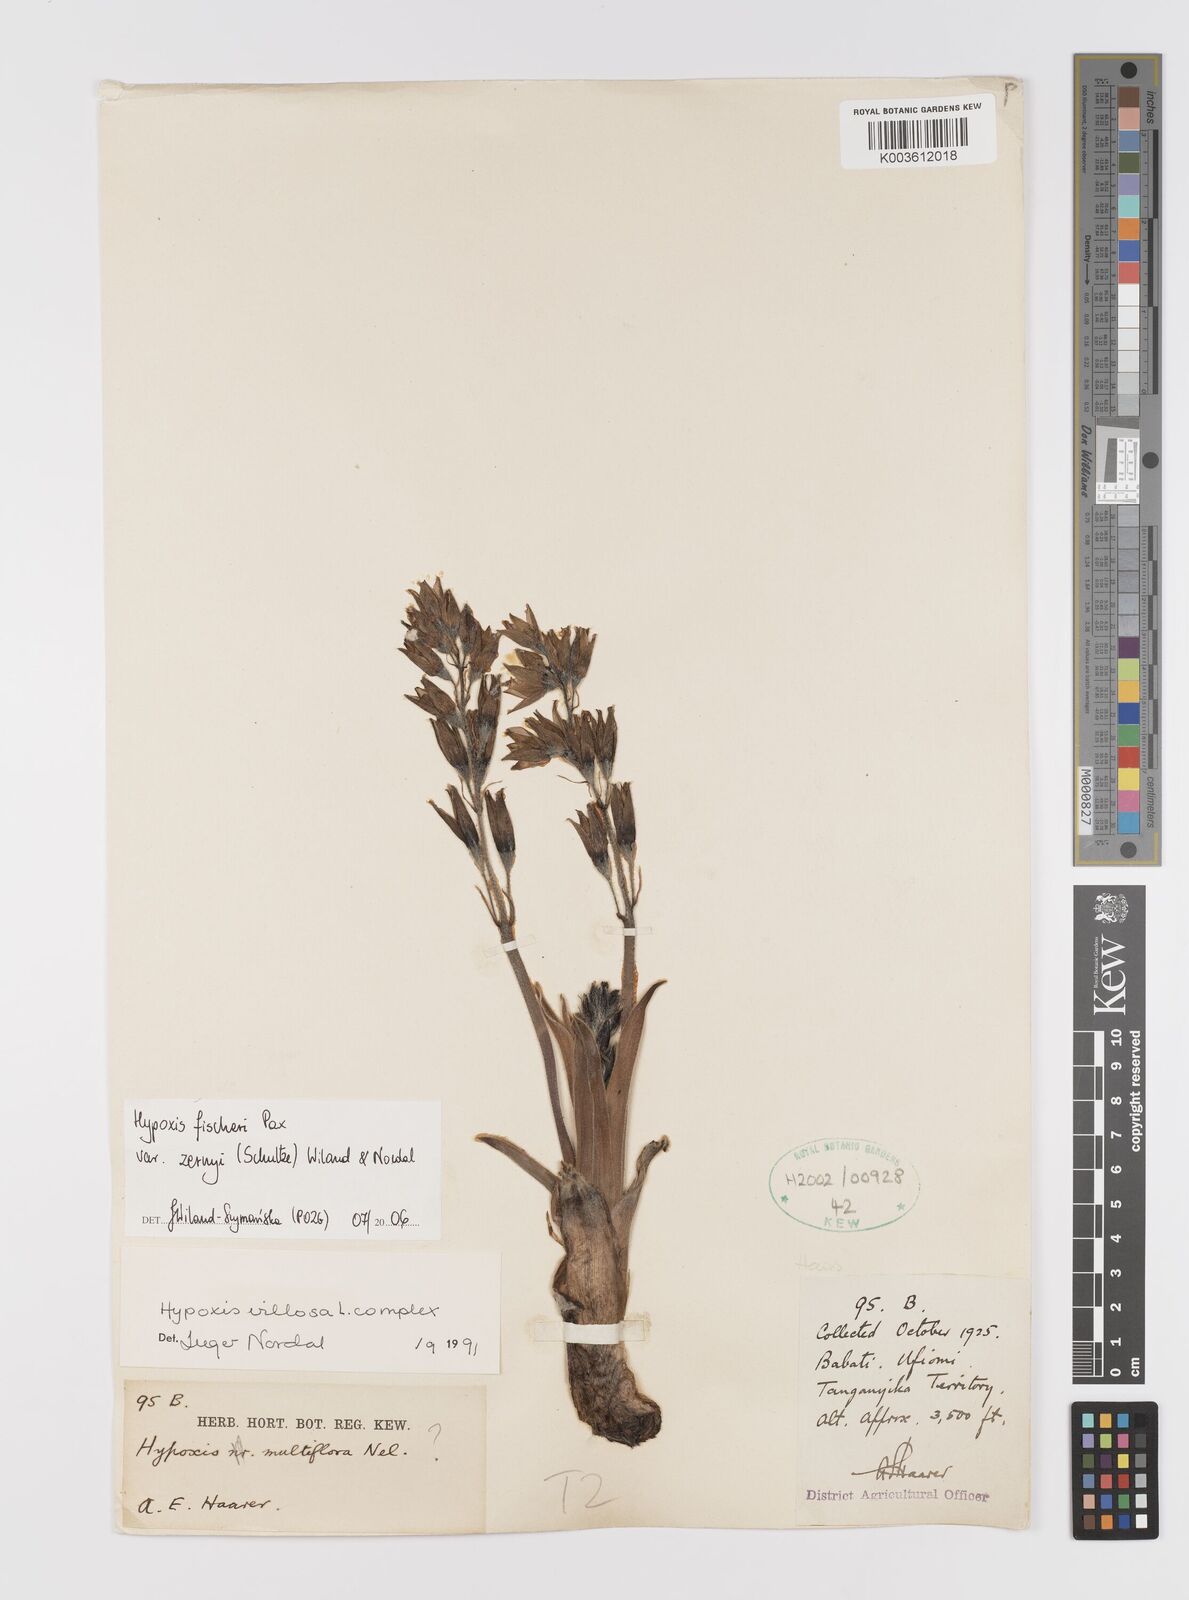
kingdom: Plantae
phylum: Tracheophyta
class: Liliopsida
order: Asparagales
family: Hypoxidaceae
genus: Hypoxis
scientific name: Hypoxis fischeri
